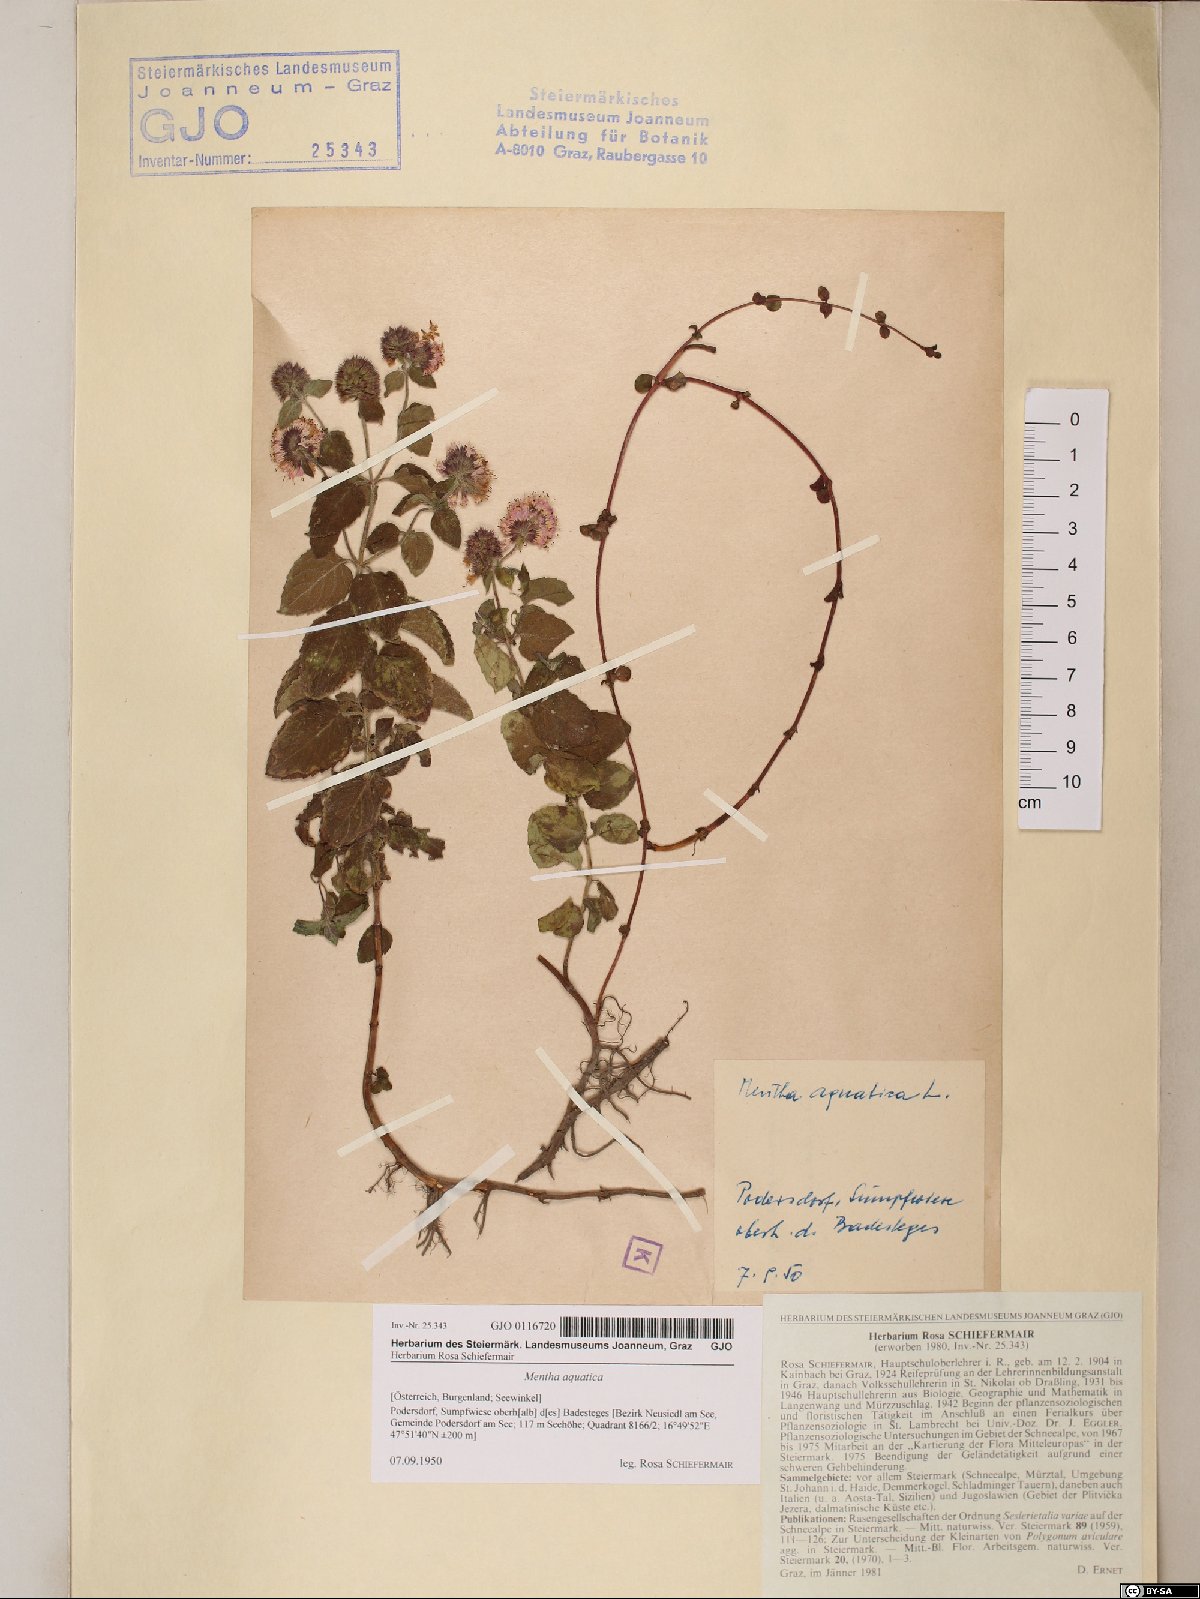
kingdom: Plantae
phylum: Tracheophyta
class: Magnoliopsida
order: Lamiales
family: Lamiaceae
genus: Mentha
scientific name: Mentha aquatica
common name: Water mint
